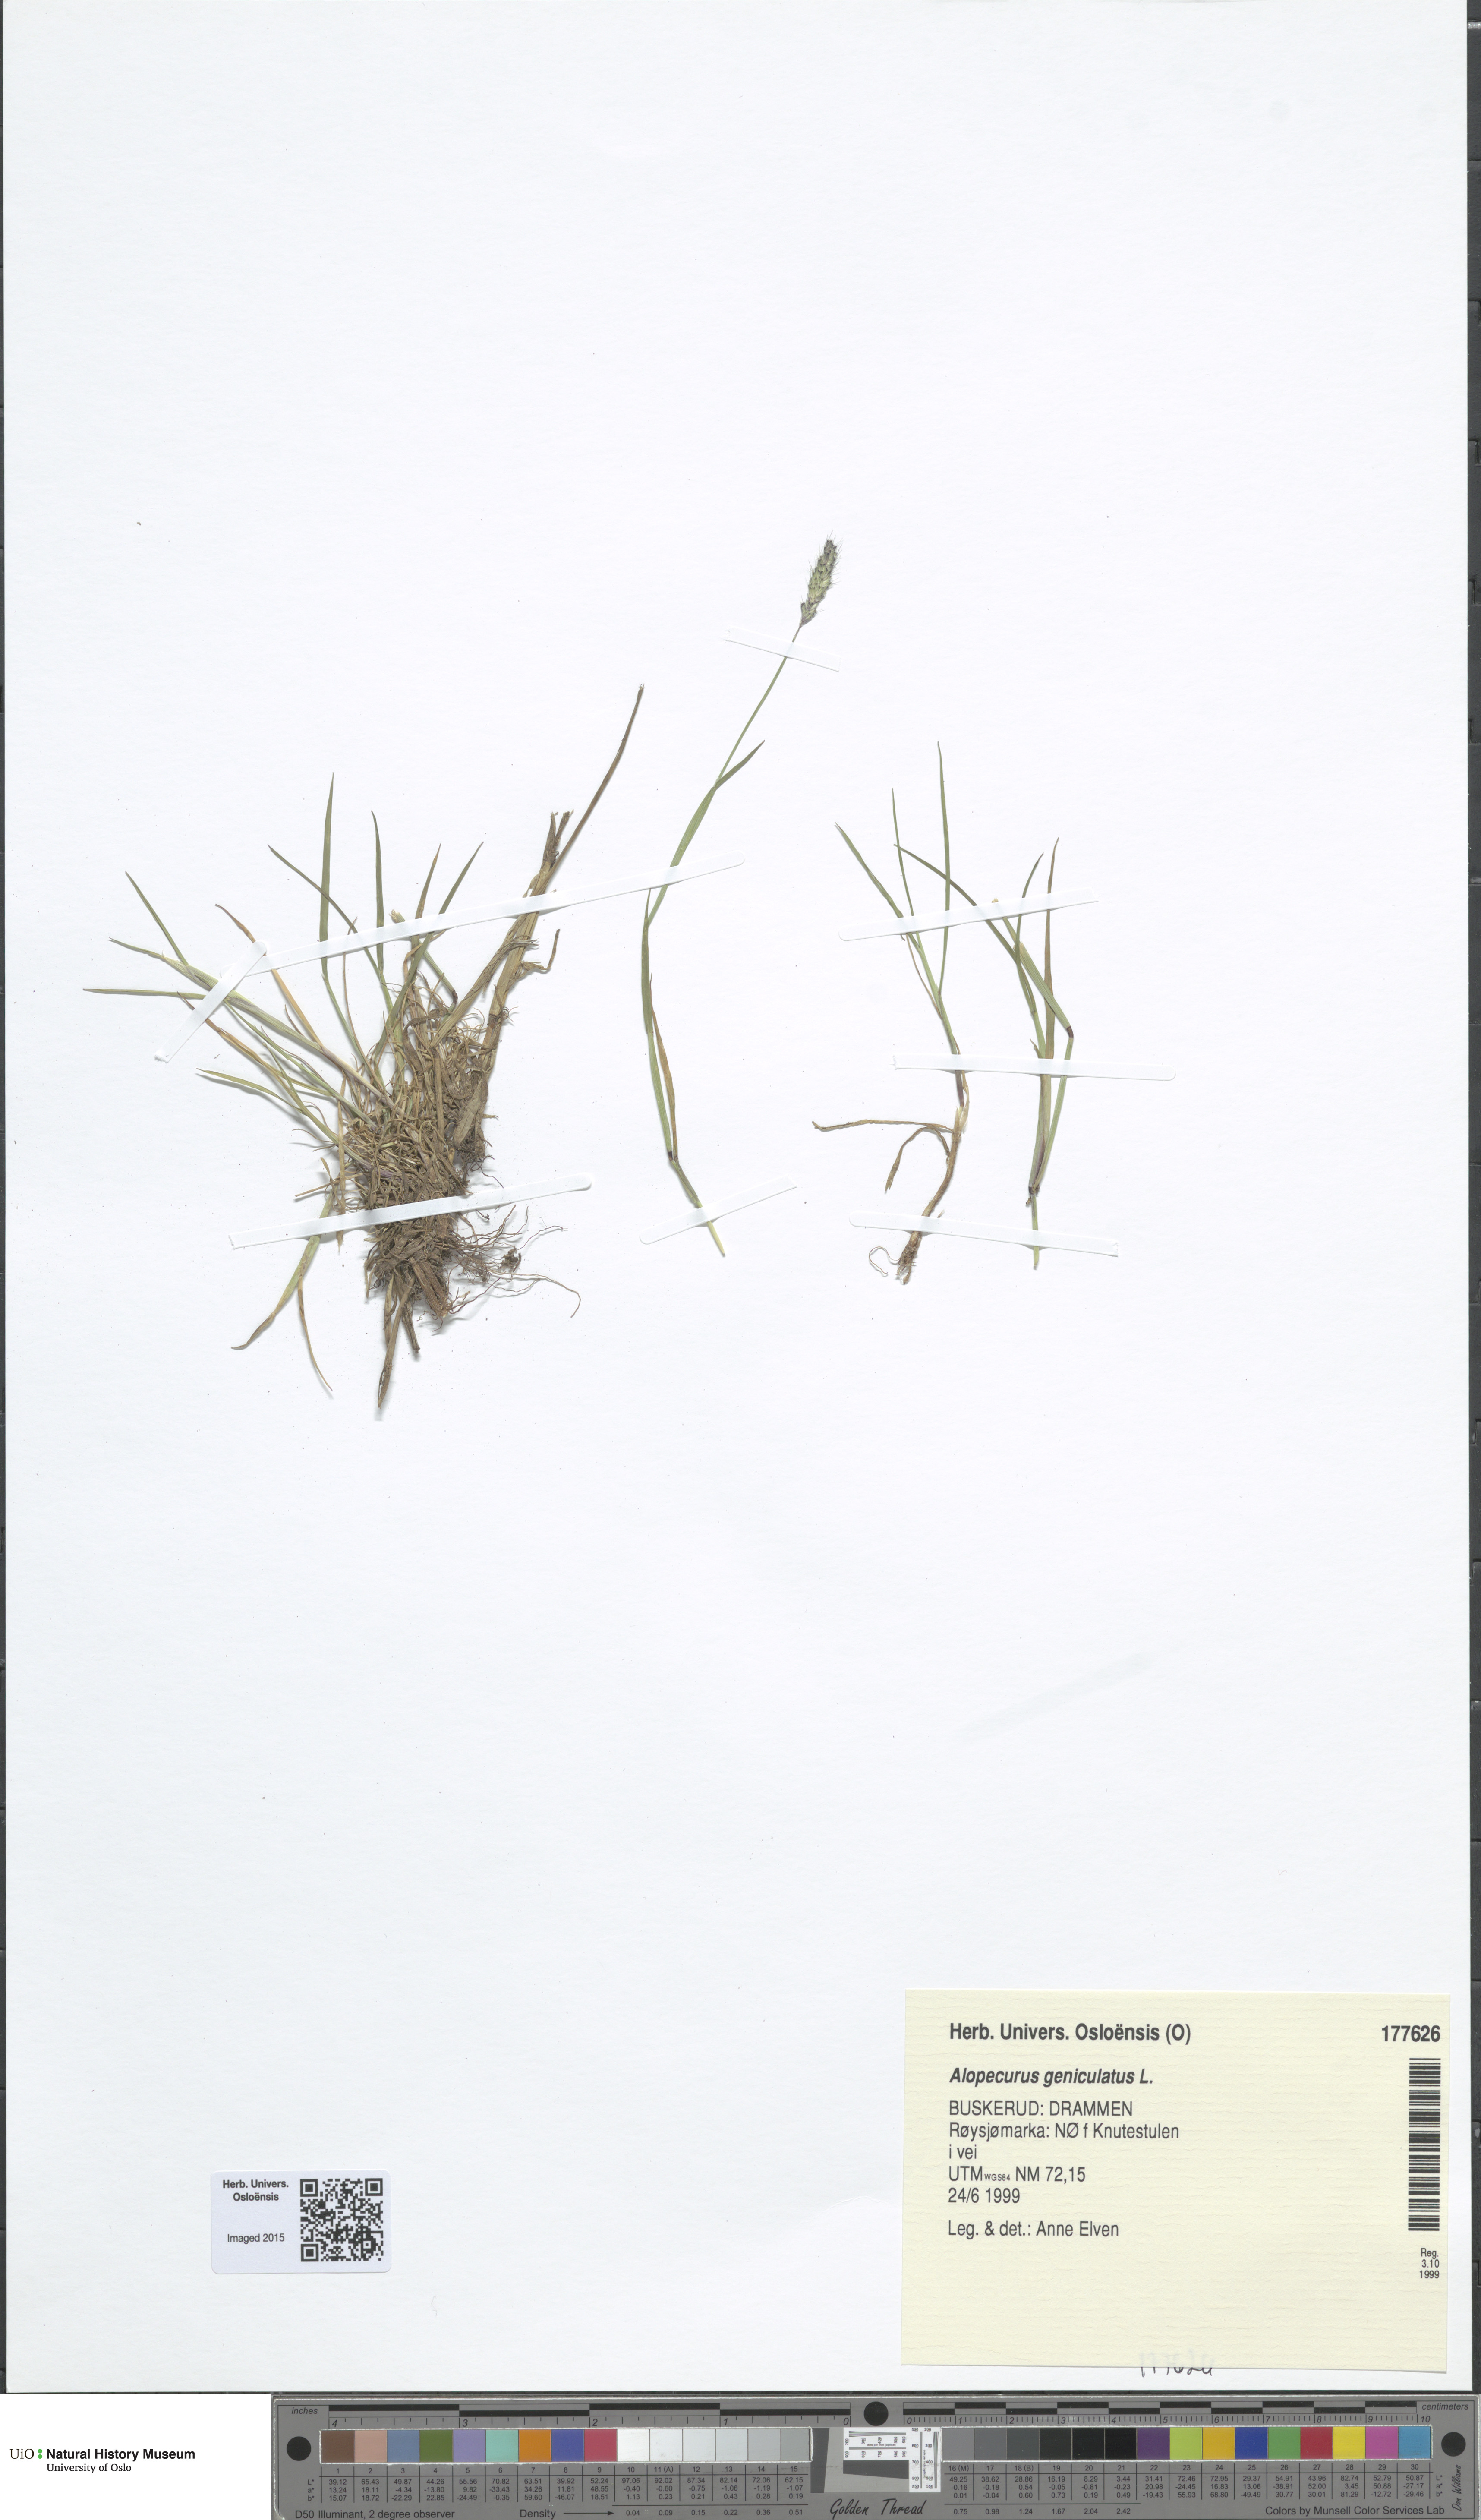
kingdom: Plantae
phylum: Tracheophyta
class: Liliopsida
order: Poales
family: Poaceae
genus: Alopecurus
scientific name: Alopecurus geniculatus
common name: Water foxtail
